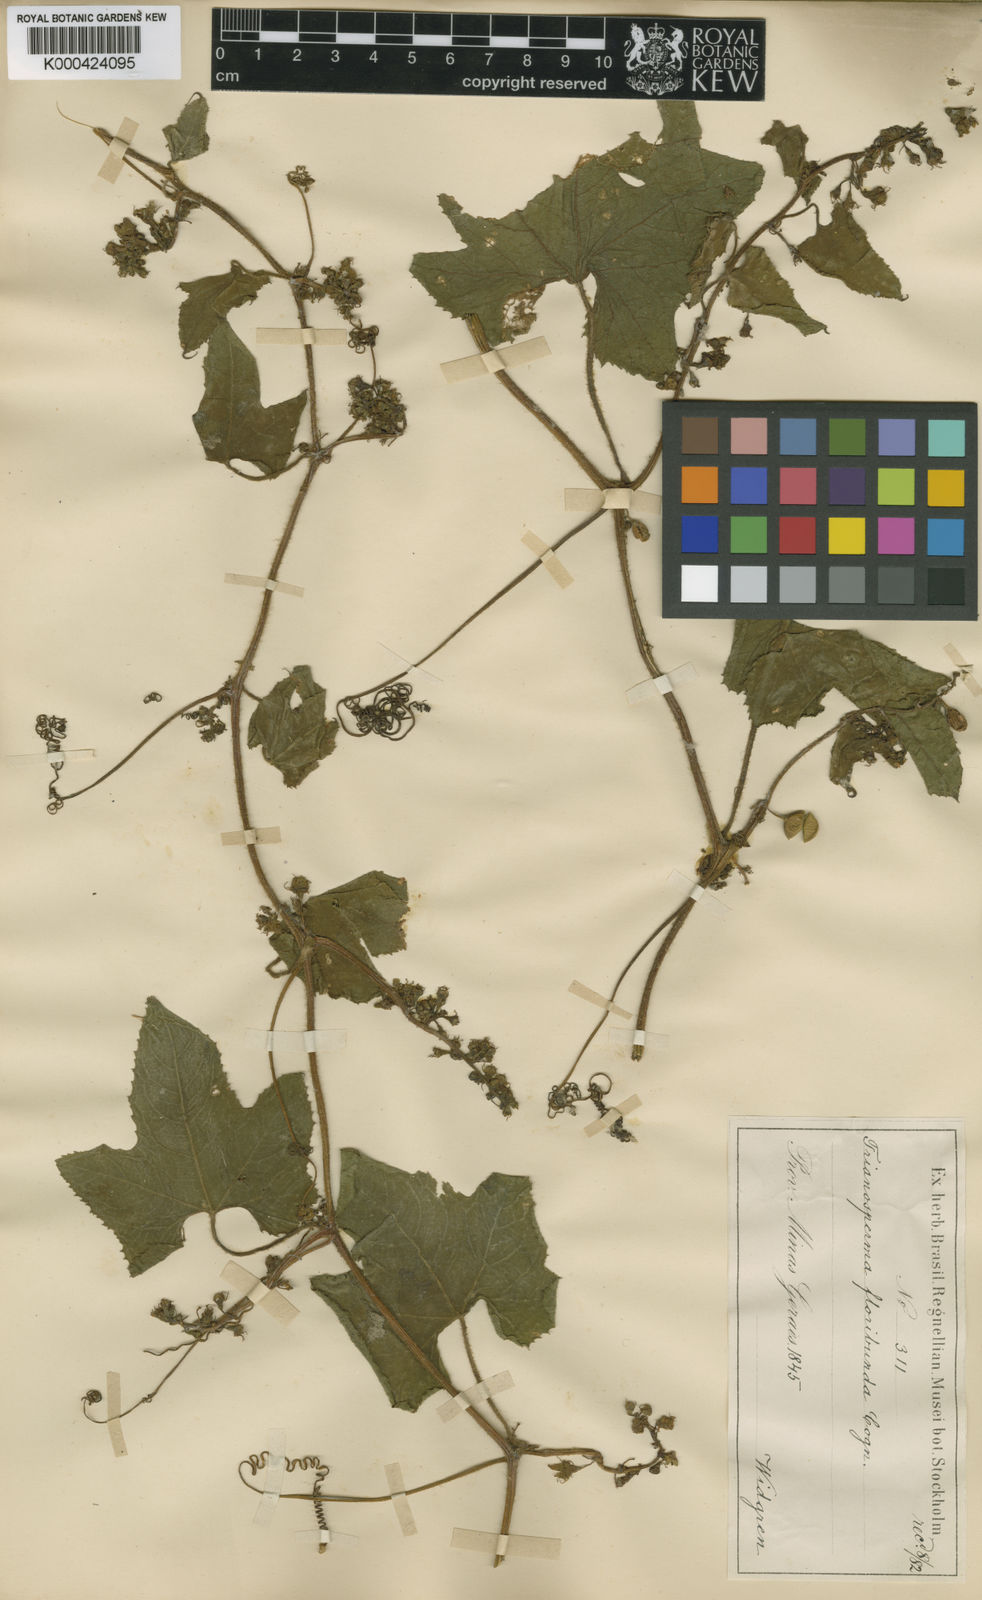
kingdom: Plantae
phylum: Tracheophyta
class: Magnoliopsida
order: Cucurbitales
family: Cucurbitaceae
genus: Cayaponia
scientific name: Cayaponia floribunda
